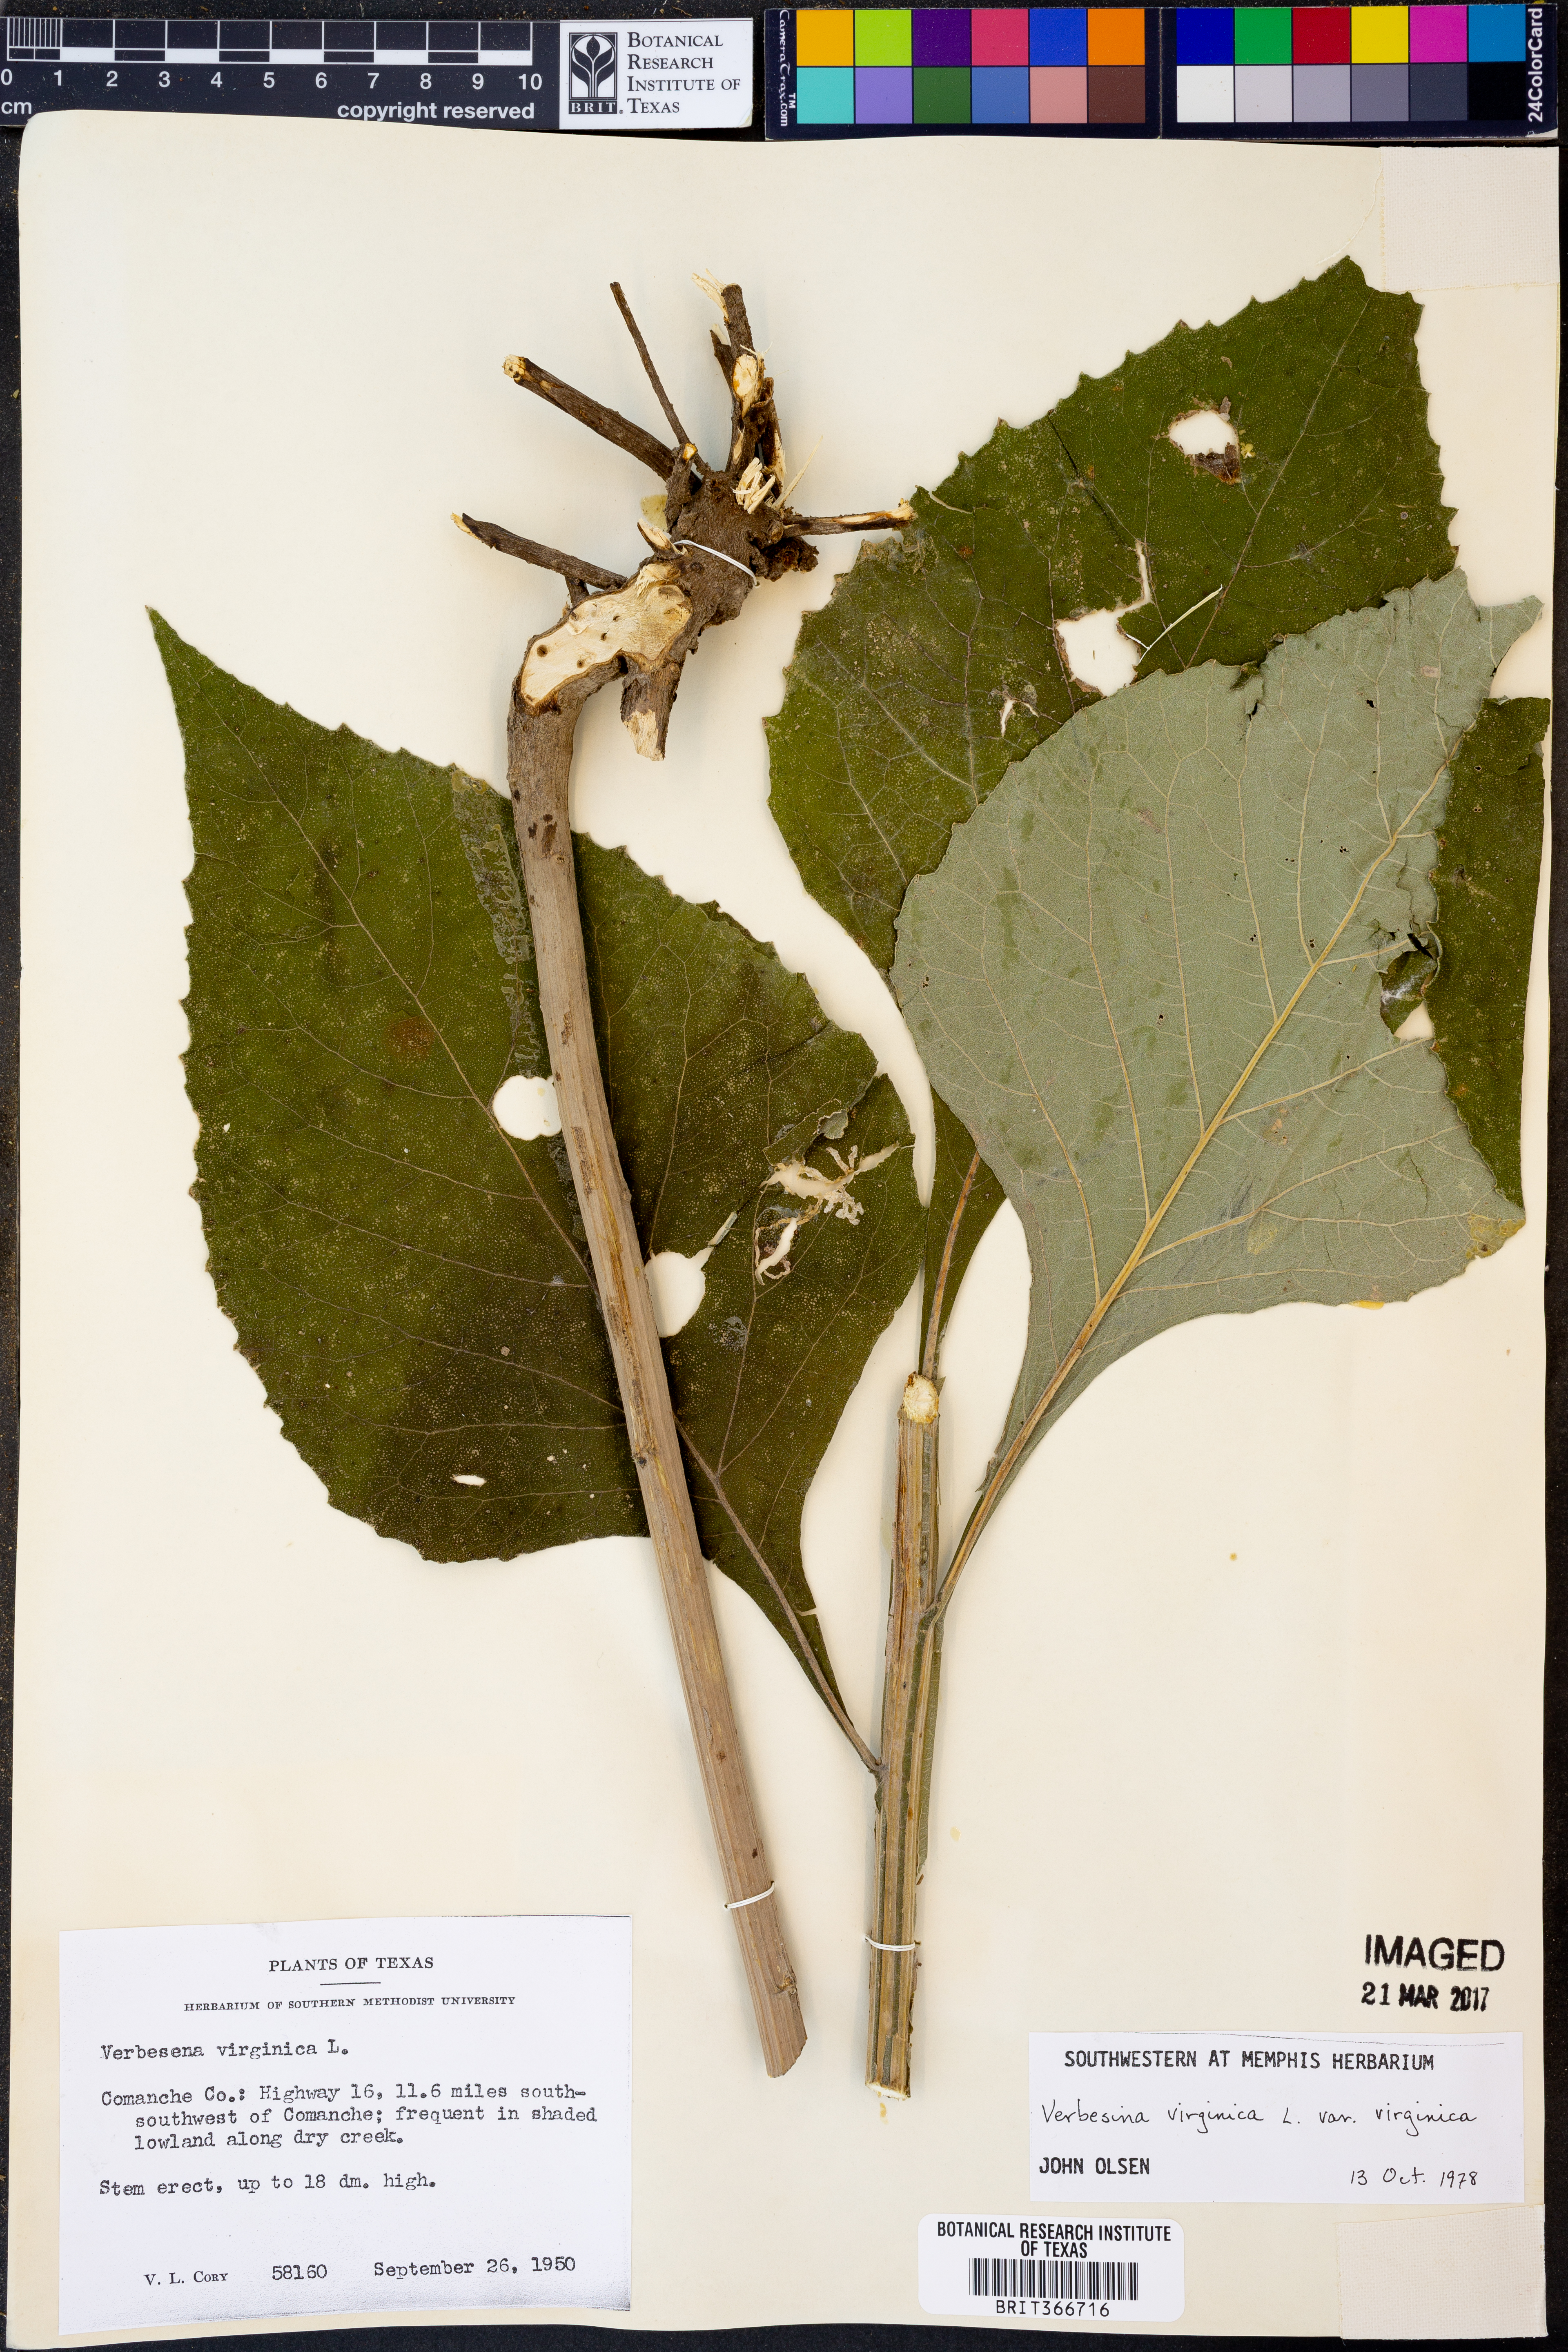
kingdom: Plantae
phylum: Tracheophyta
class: Magnoliopsida
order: Asterales
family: Asteraceae
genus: Verbesina
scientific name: Verbesina virginica
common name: Frostweed
